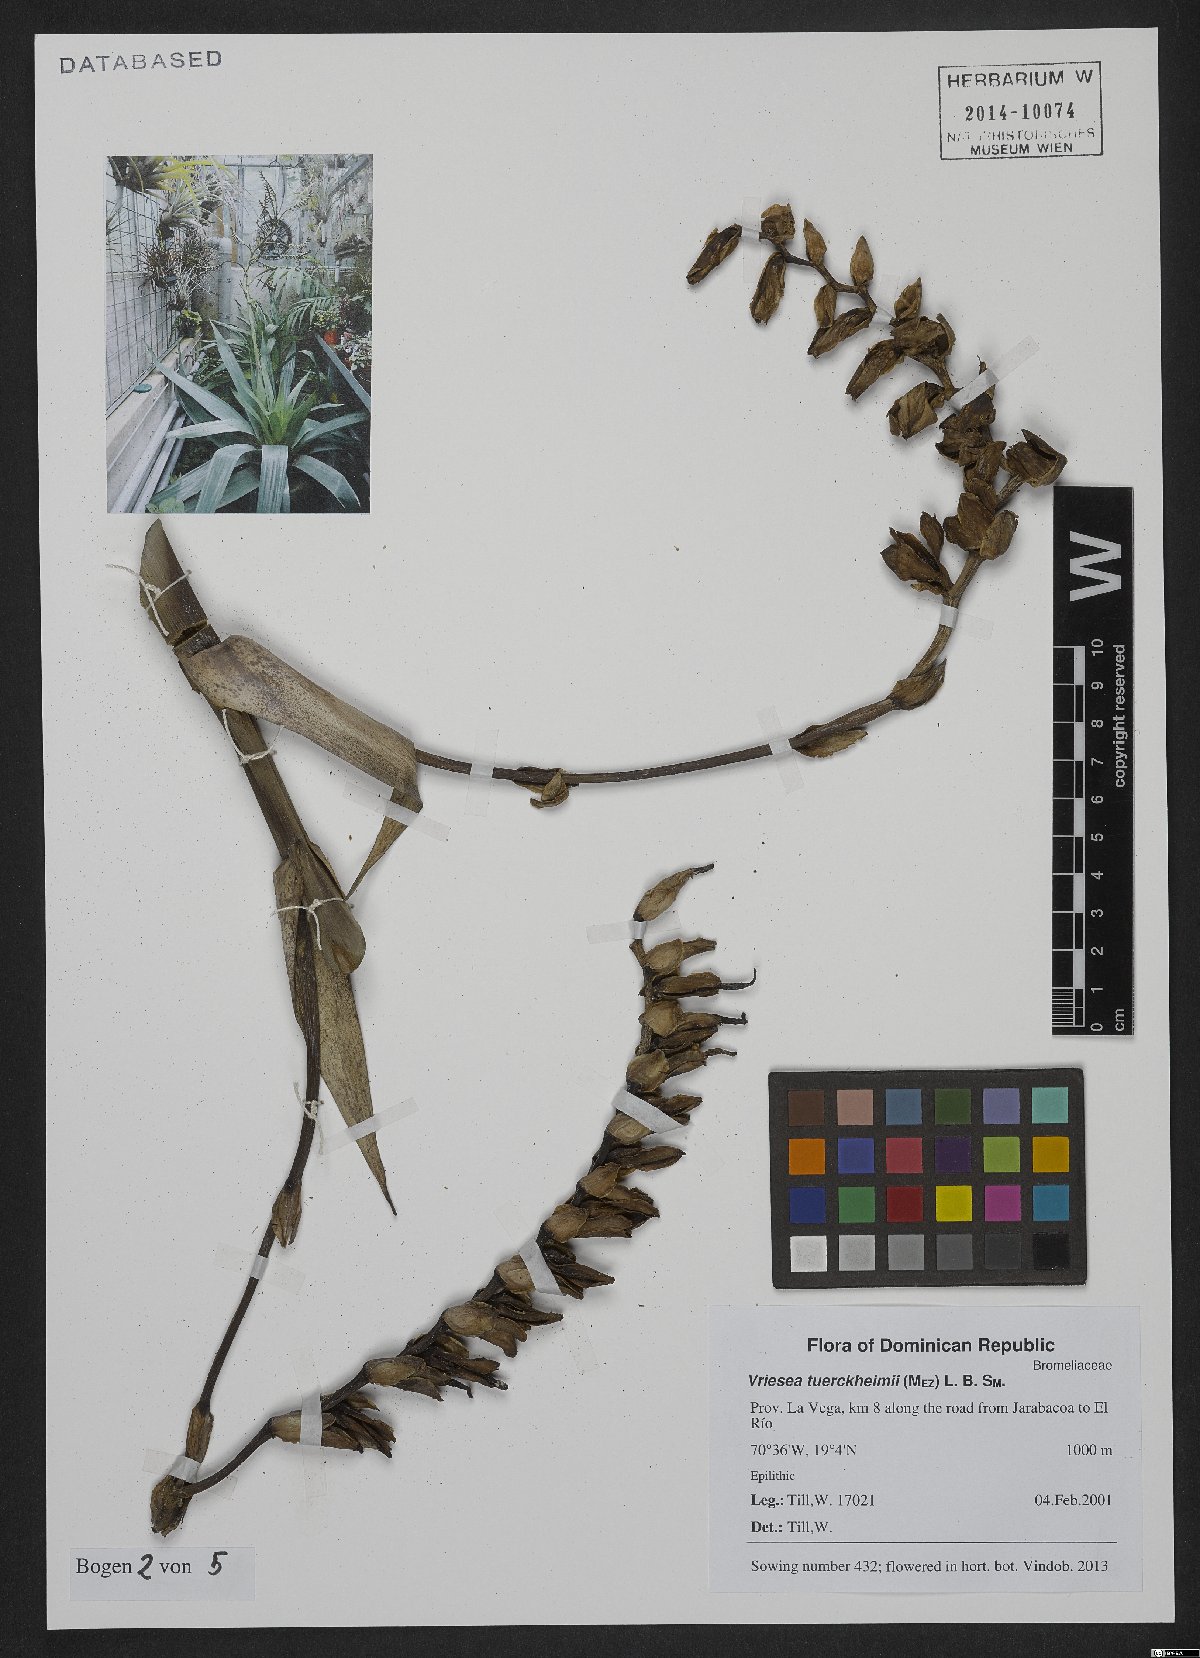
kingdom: Plantae
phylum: Tracheophyta
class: Liliopsida
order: Poales
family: Bromeliaceae
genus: Zizkaea
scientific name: Zizkaea tuerckheimii
